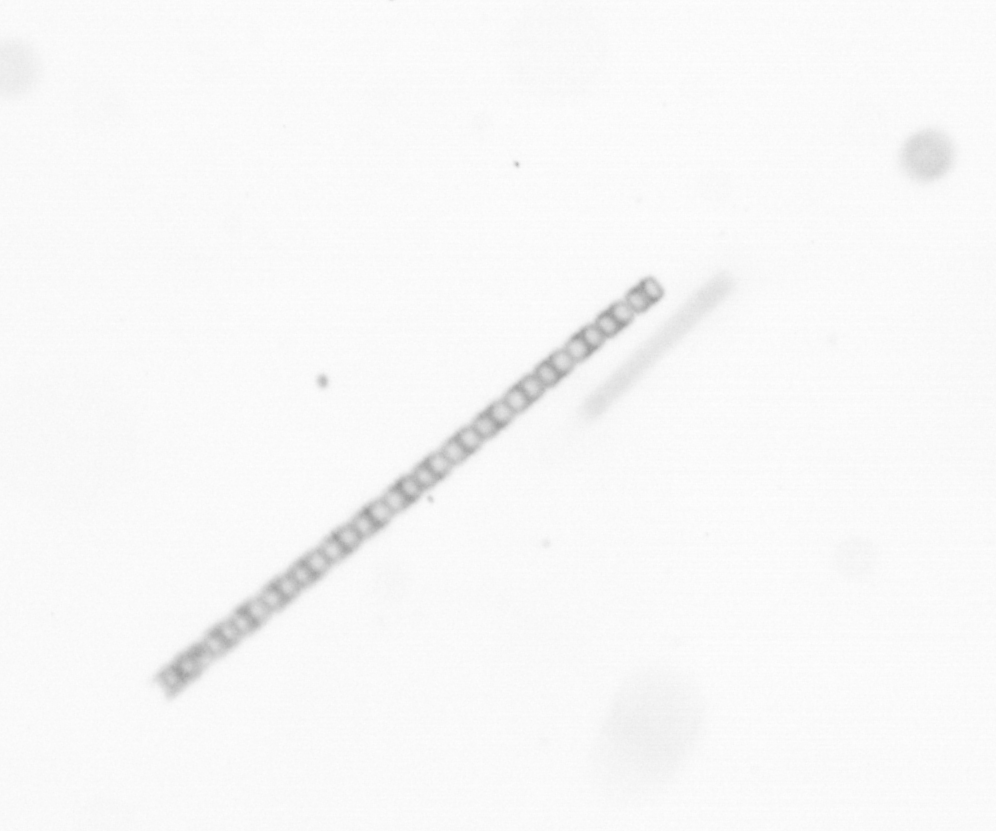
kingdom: Chromista
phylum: Ochrophyta
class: Bacillariophyceae
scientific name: Bacillariophyceae
